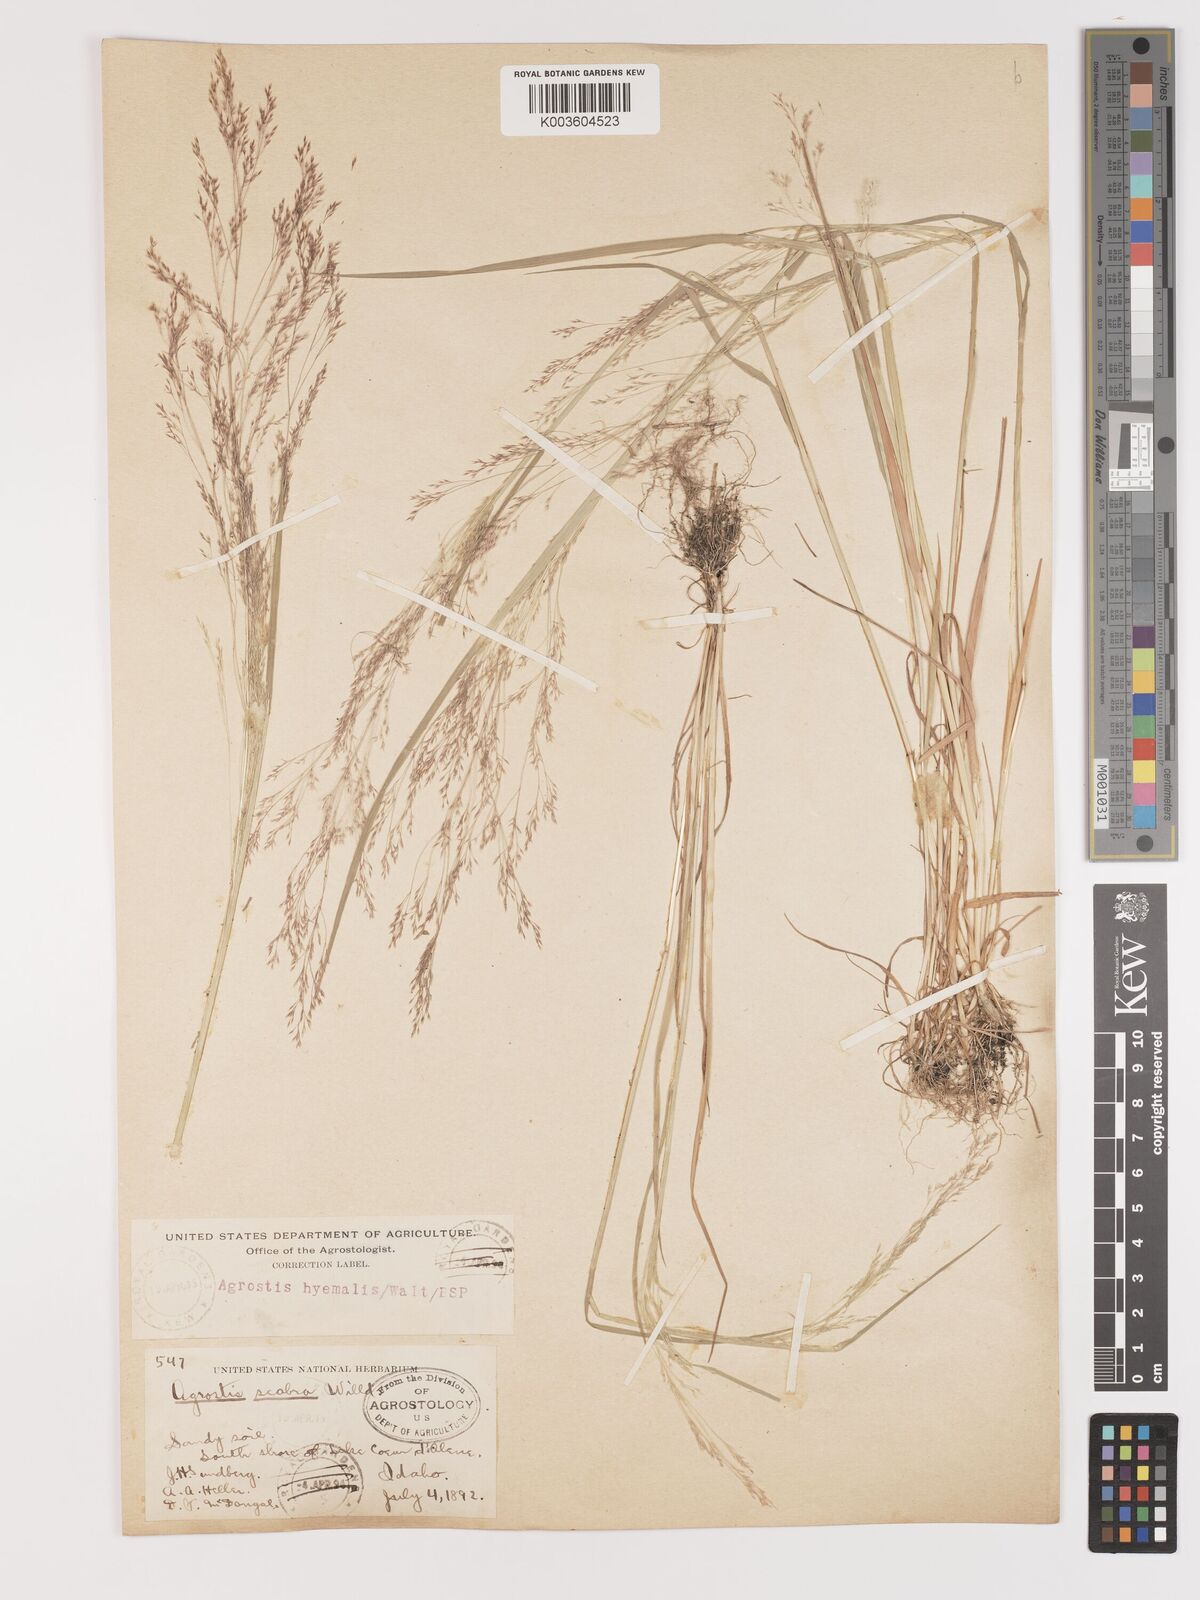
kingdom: Plantae
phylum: Tracheophyta
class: Liliopsida
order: Poales
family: Poaceae
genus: Agrostis
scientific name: Agrostis hyemalis
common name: Small bent
